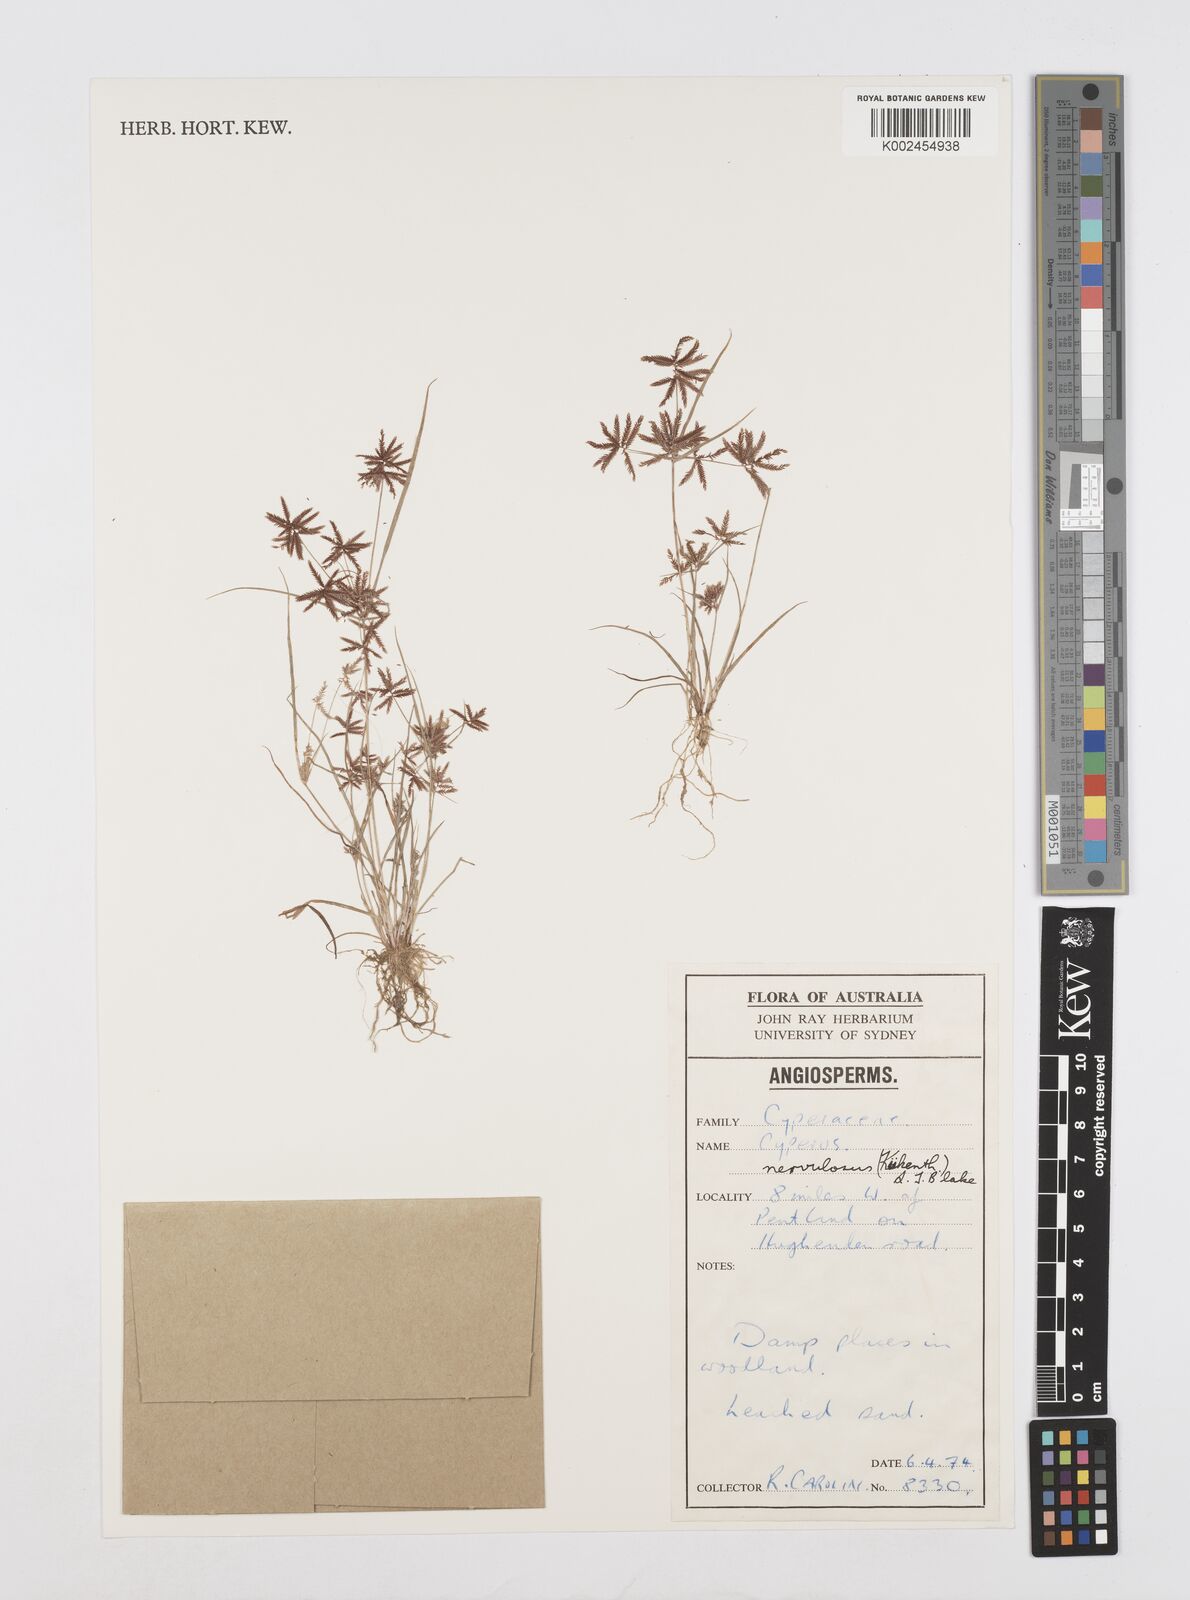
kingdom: Plantae
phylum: Tracheophyta
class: Liliopsida
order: Poales
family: Cyperaceae
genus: Cyperus
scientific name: Cyperus nervulosus
